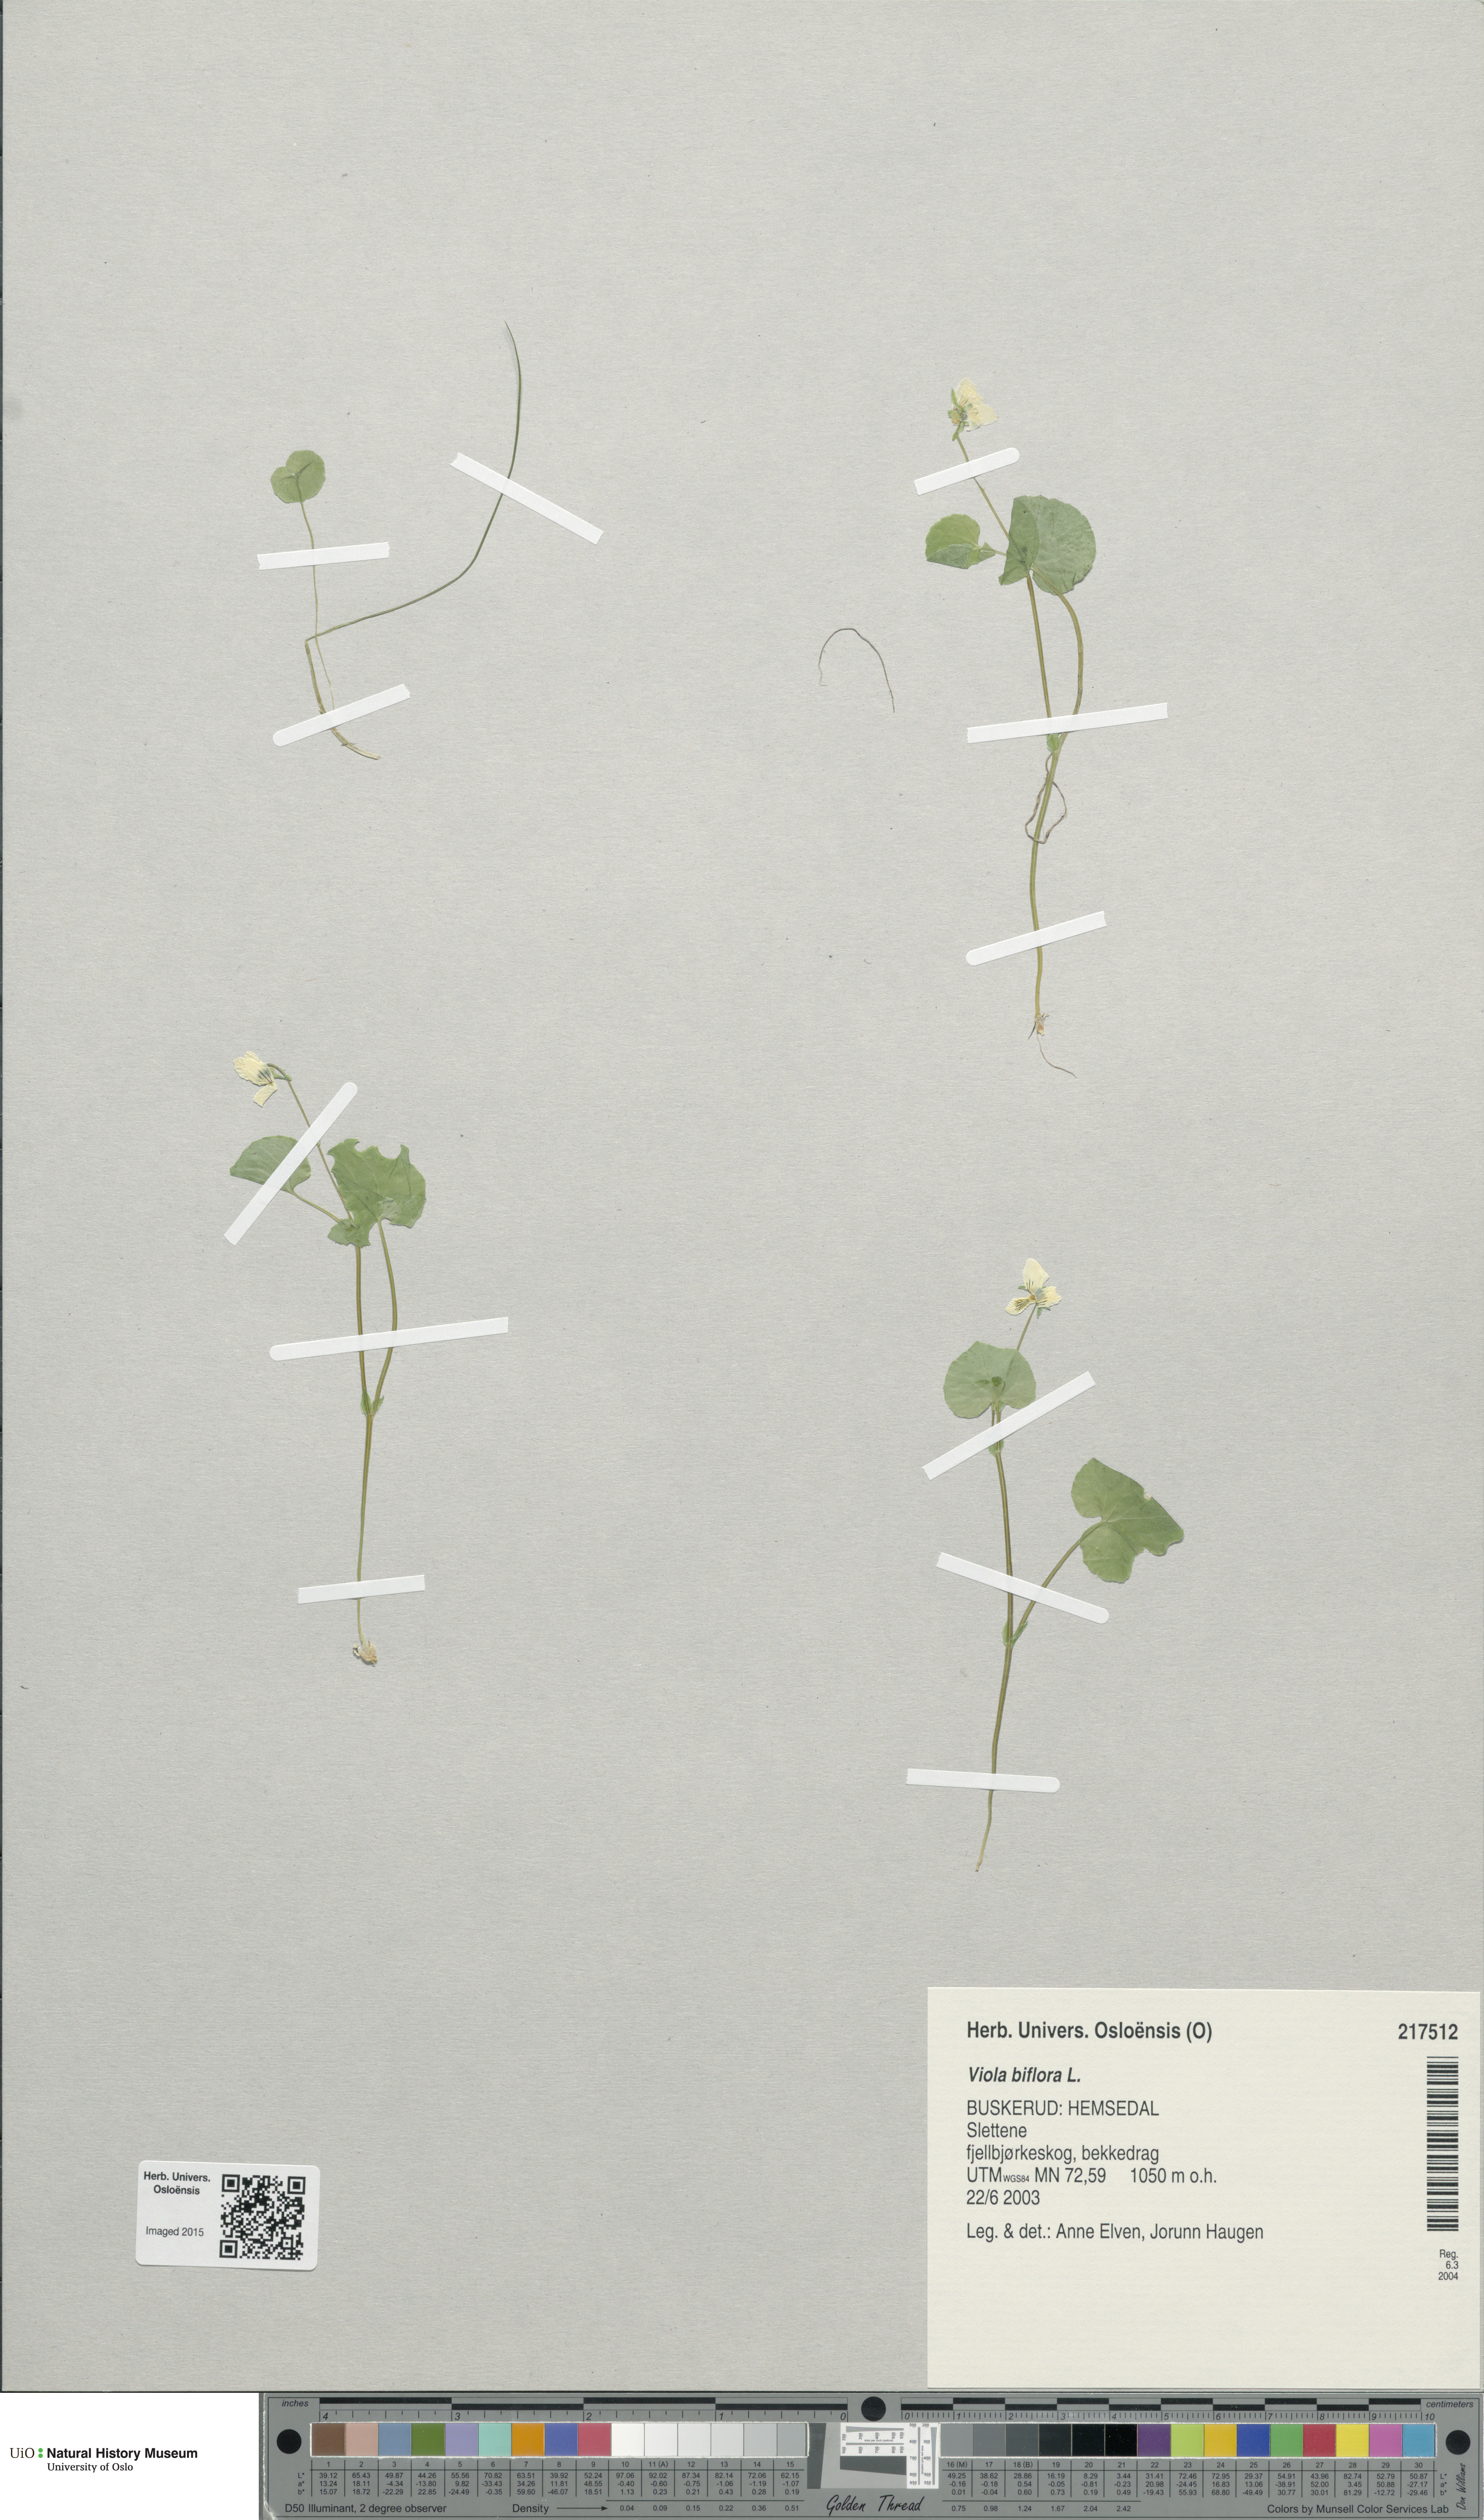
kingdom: Plantae
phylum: Tracheophyta
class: Magnoliopsida
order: Malpighiales
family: Violaceae
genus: Viola
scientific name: Viola biflora
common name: Alpine yellow violet
